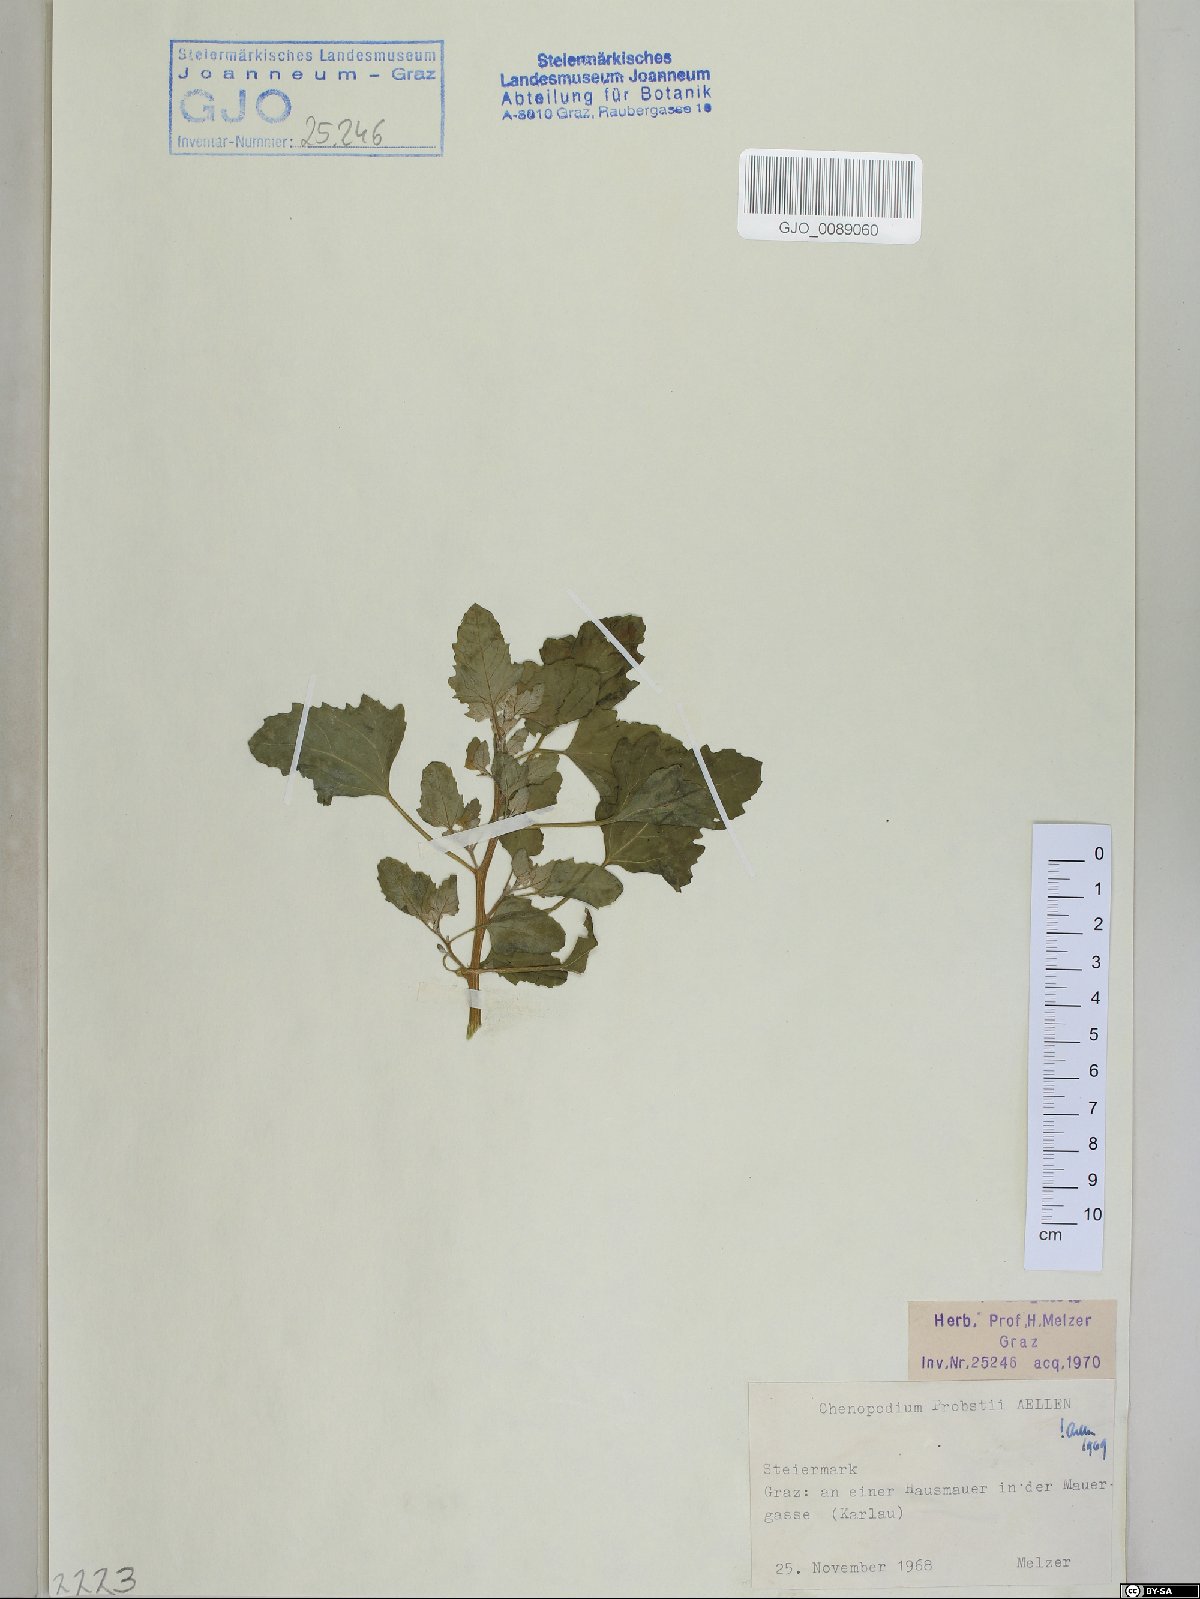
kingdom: Plantae
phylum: Tracheophyta
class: Magnoliopsida
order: Caryophyllales
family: Amaranthaceae
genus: Chenopodium
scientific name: Chenopodium probstii
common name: Probst's goosefoot
